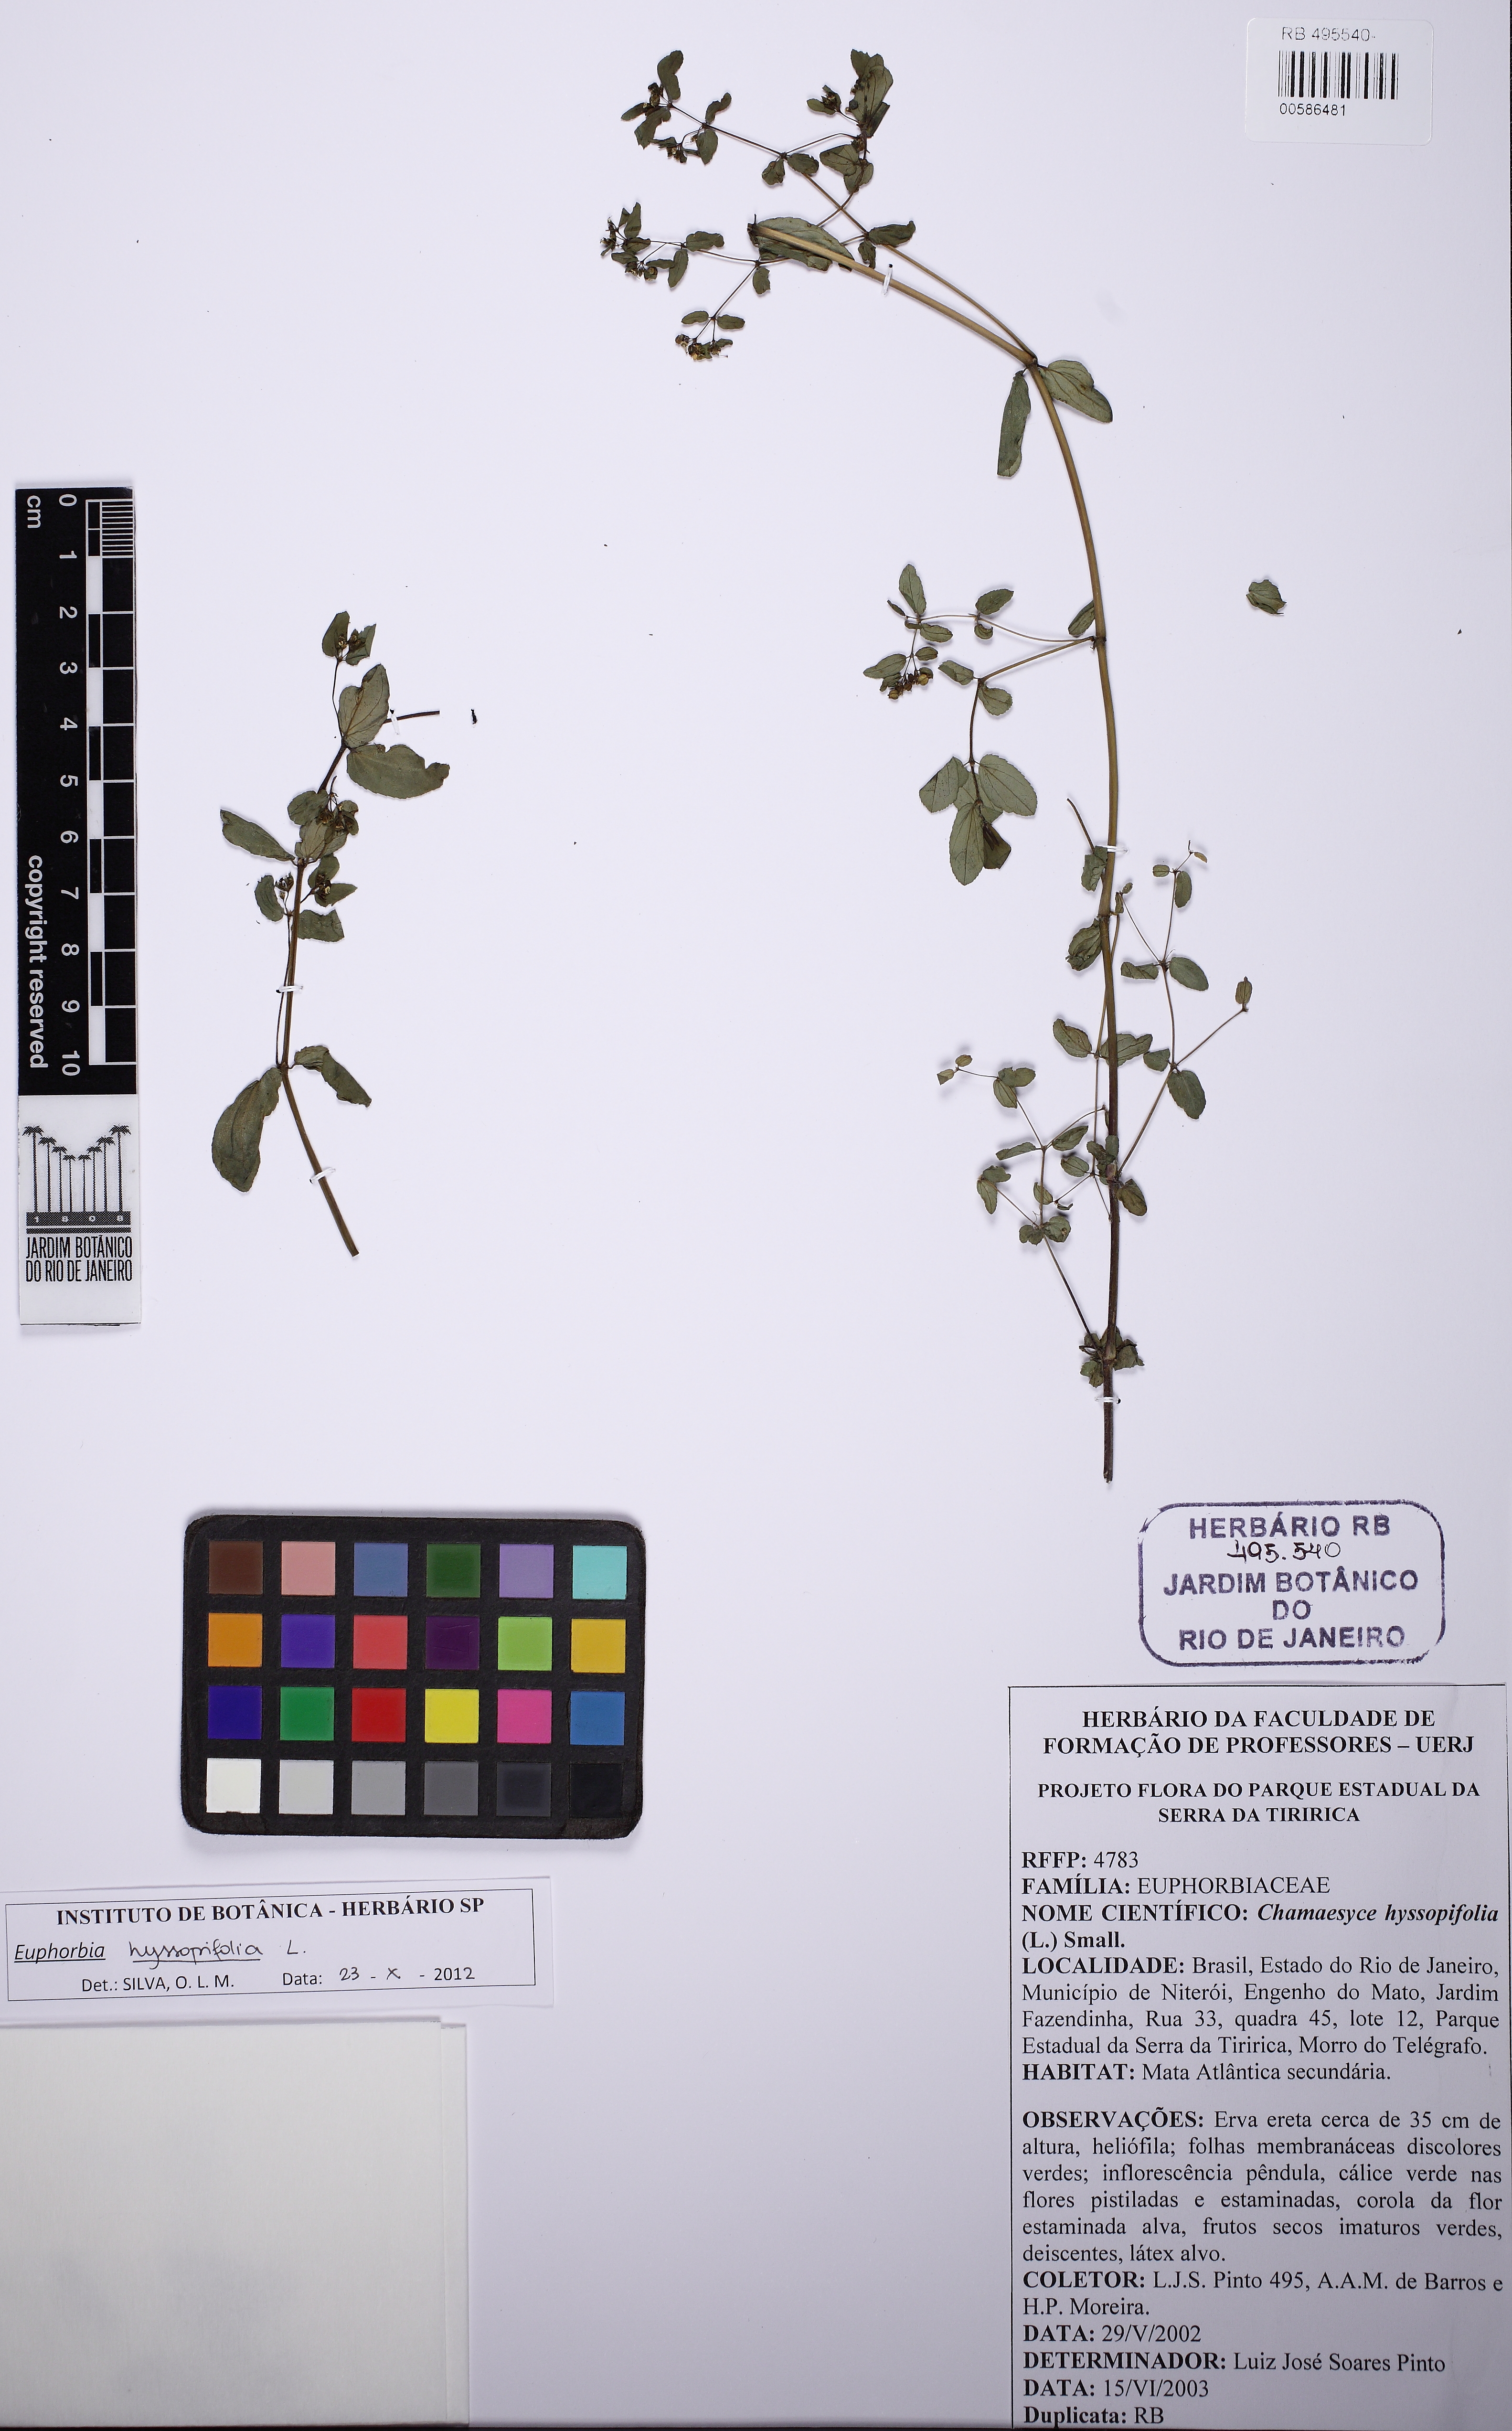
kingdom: Plantae
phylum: Tracheophyta
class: Magnoliopsida
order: Malpighiales
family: Euphorbiaceae
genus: Euphorbia
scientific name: Euphorbia hyssopifolia
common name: Hyssopleaf sandmat
